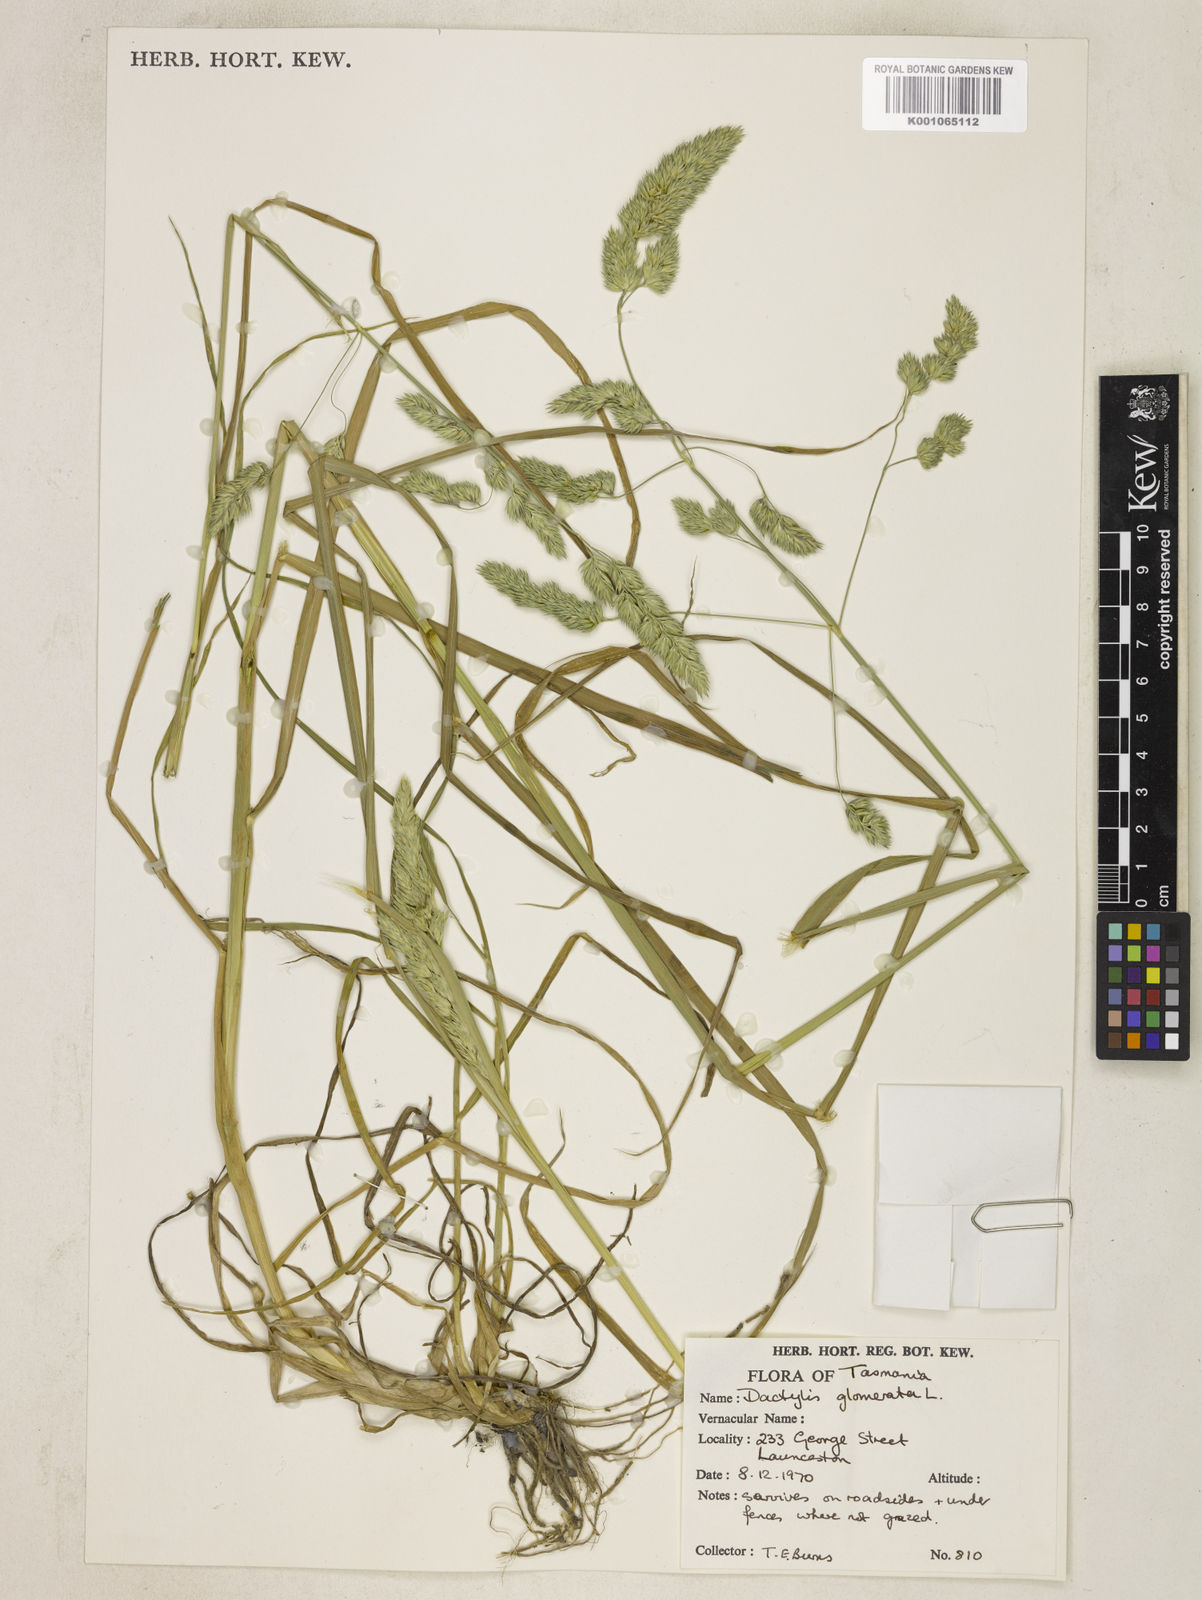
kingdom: Plantae
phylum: Tracheophyta
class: Liliopsida
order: Poales
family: Poaceae
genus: Dactylis
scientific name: Dactylis glomerata
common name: Orchardgrass
